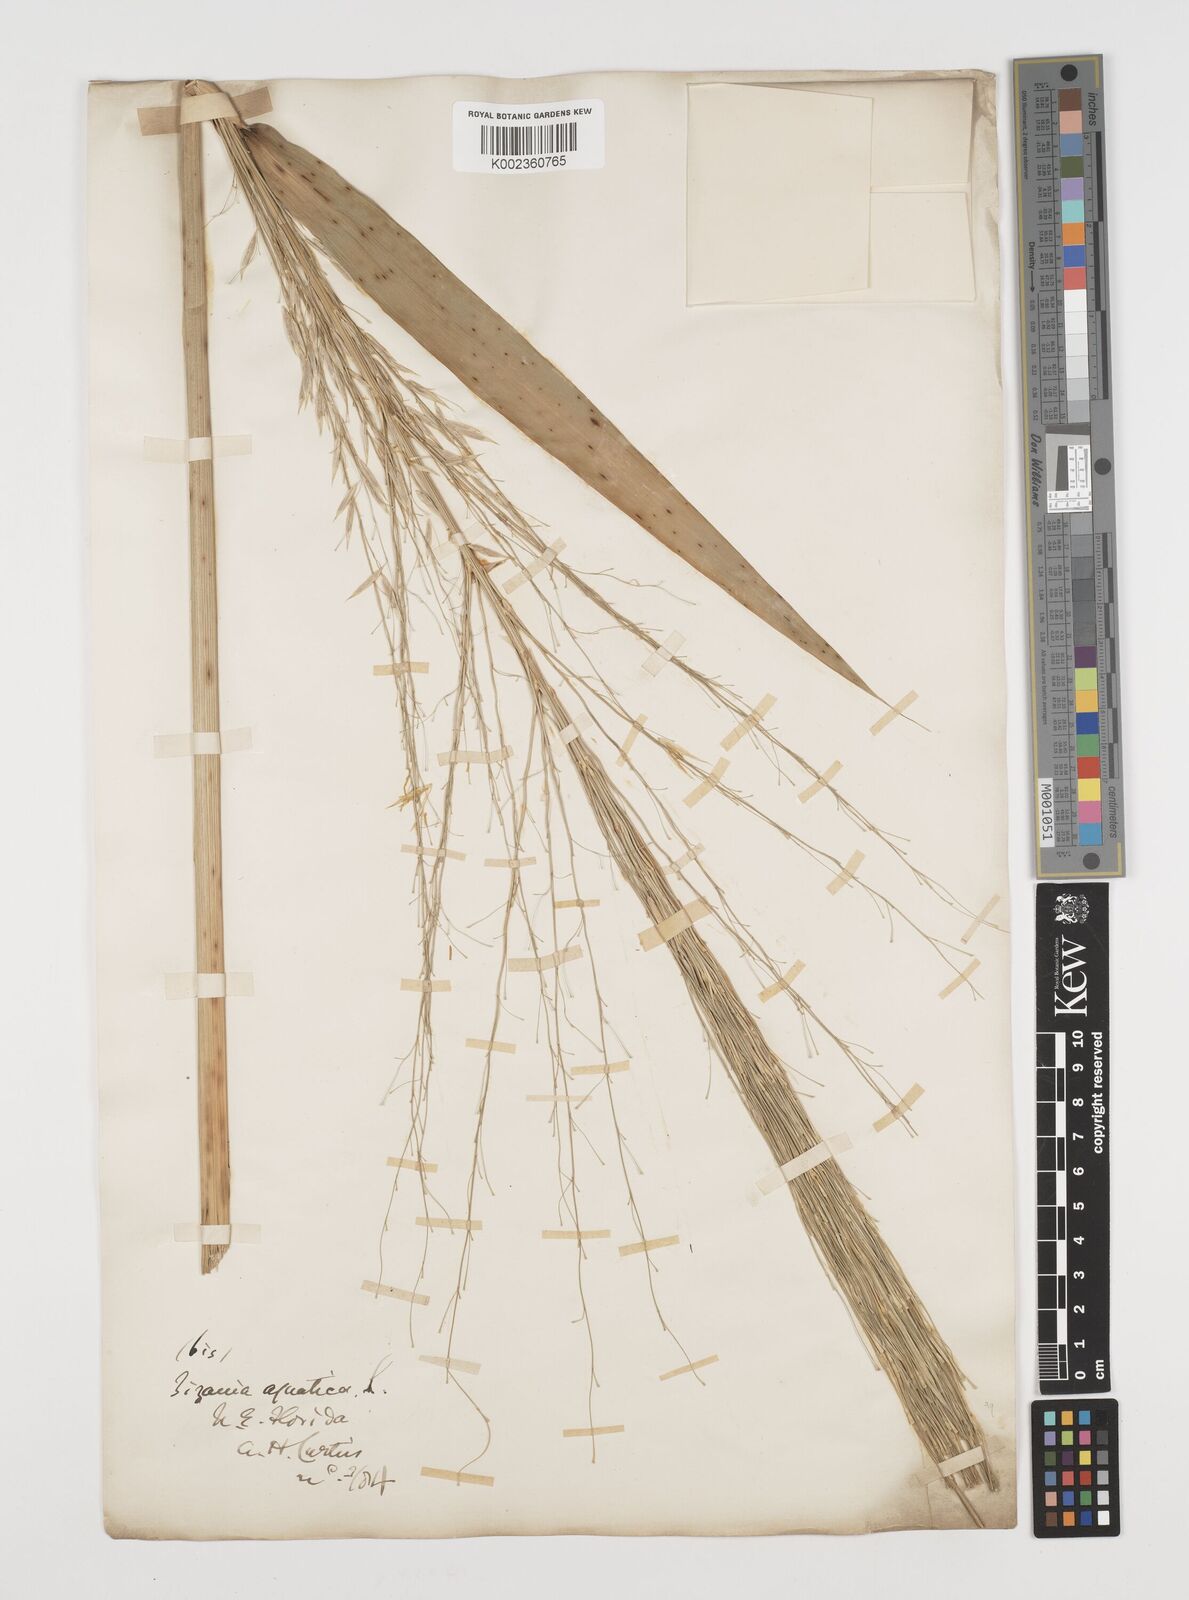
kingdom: Plantae
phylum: Tracheophyta
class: Liliopsida
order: Poales
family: Poaceae
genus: Zizania
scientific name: Zizania aquatica
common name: Annual wildrice
